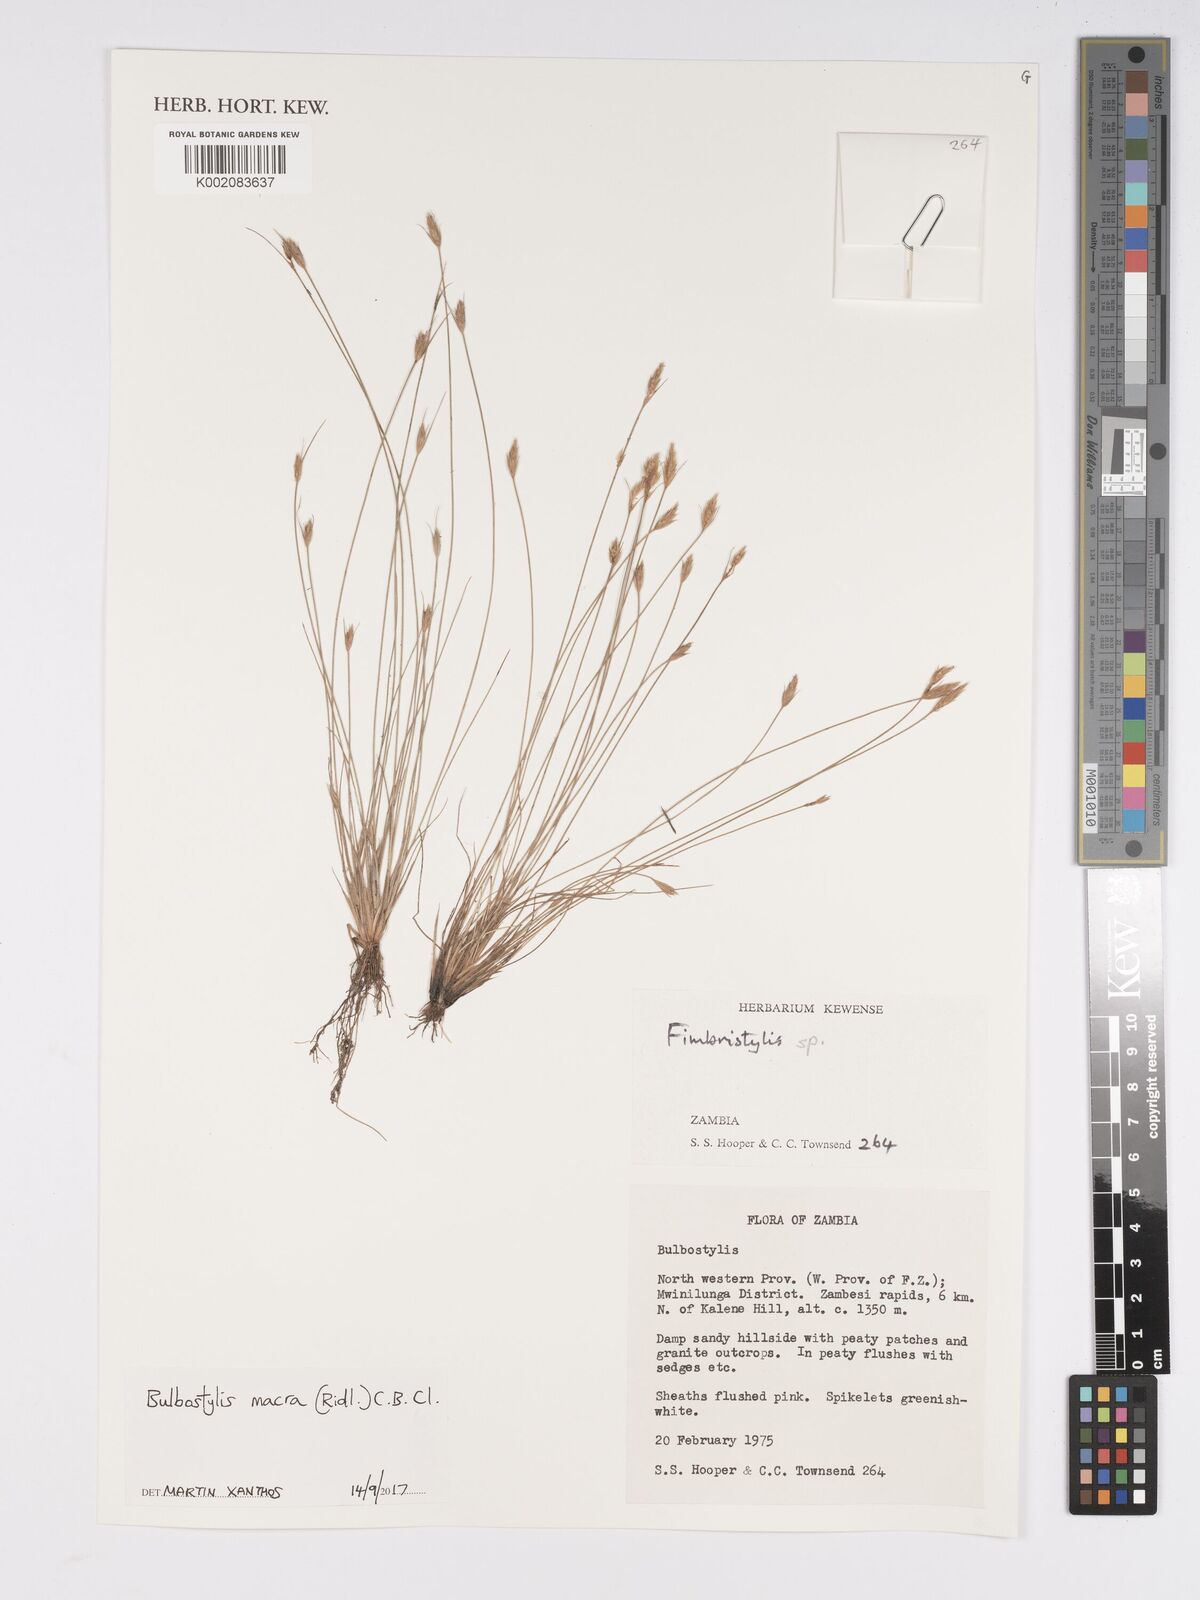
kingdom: Plantae
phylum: Tracheophyta
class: Liliopsida
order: Poales
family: Cyperaceae
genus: Bulbostylis
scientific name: Bulbostylis macra
